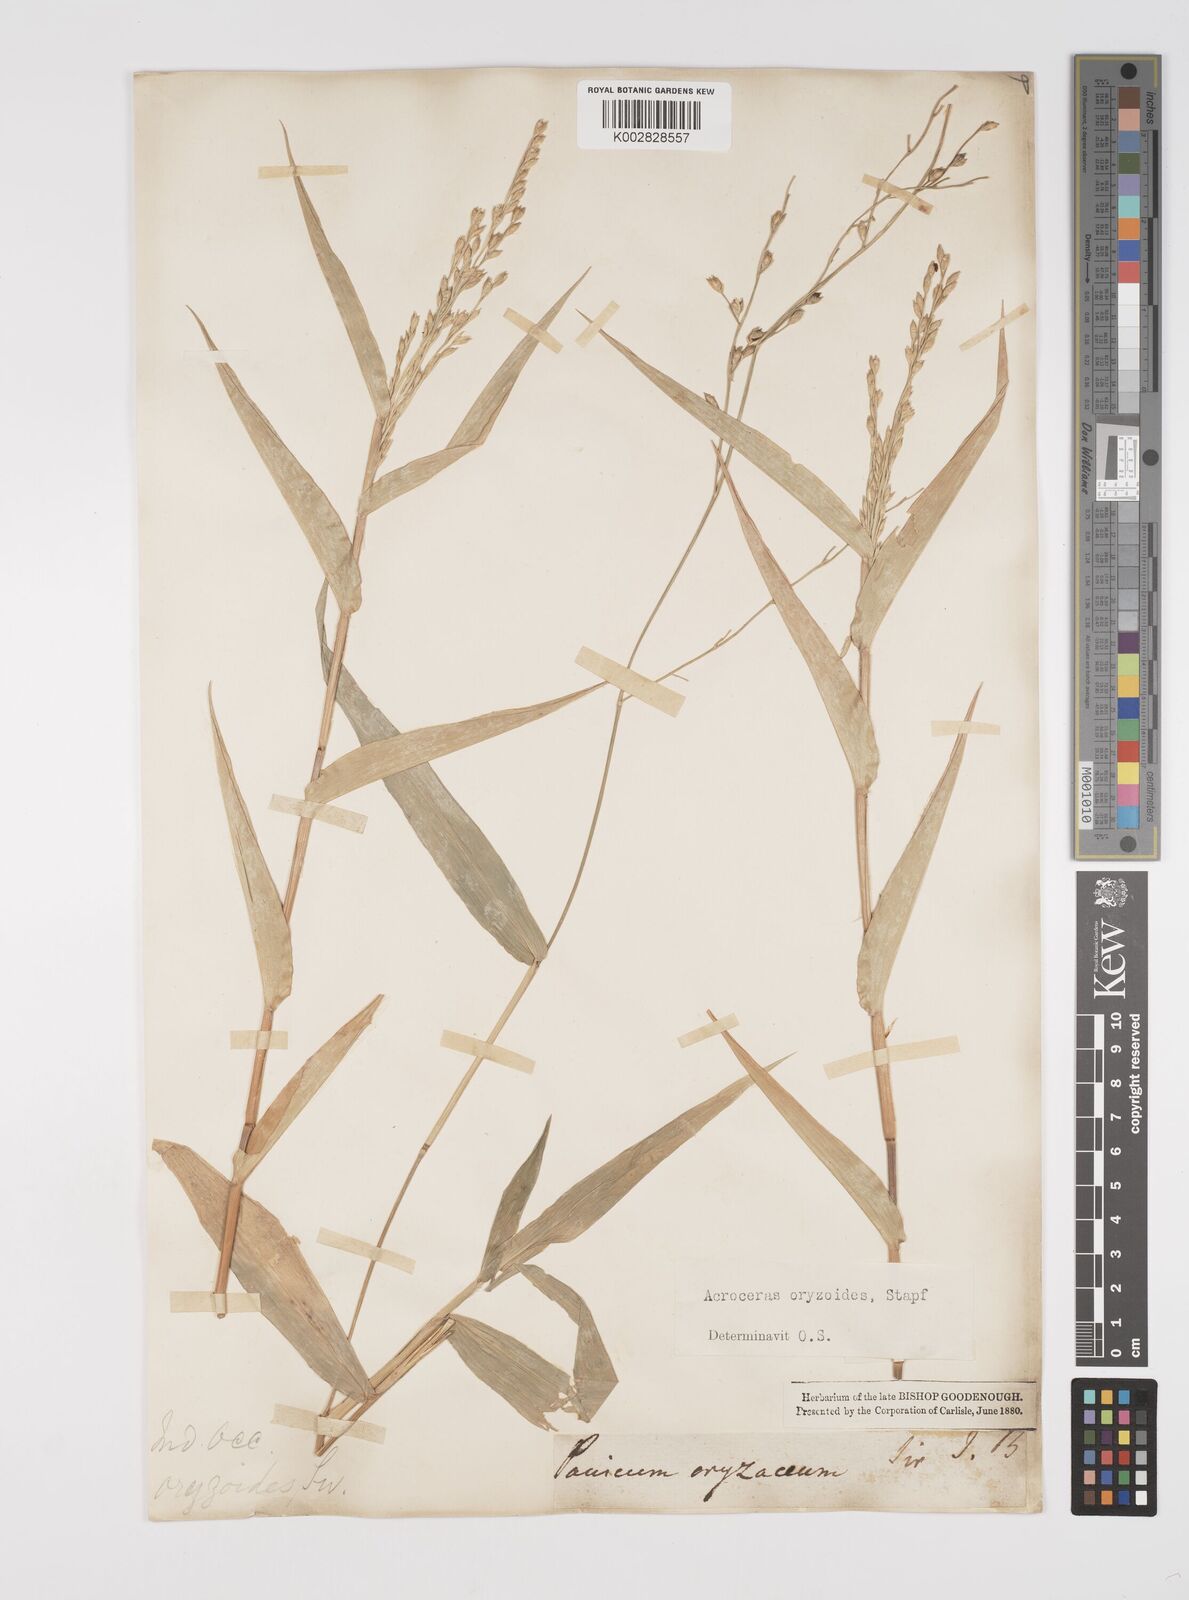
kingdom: Plantae
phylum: Tracheophyta
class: Liliopsida
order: Poales
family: Poaceae
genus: Acroceras
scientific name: Acroceras zizanioides
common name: Oat grass
